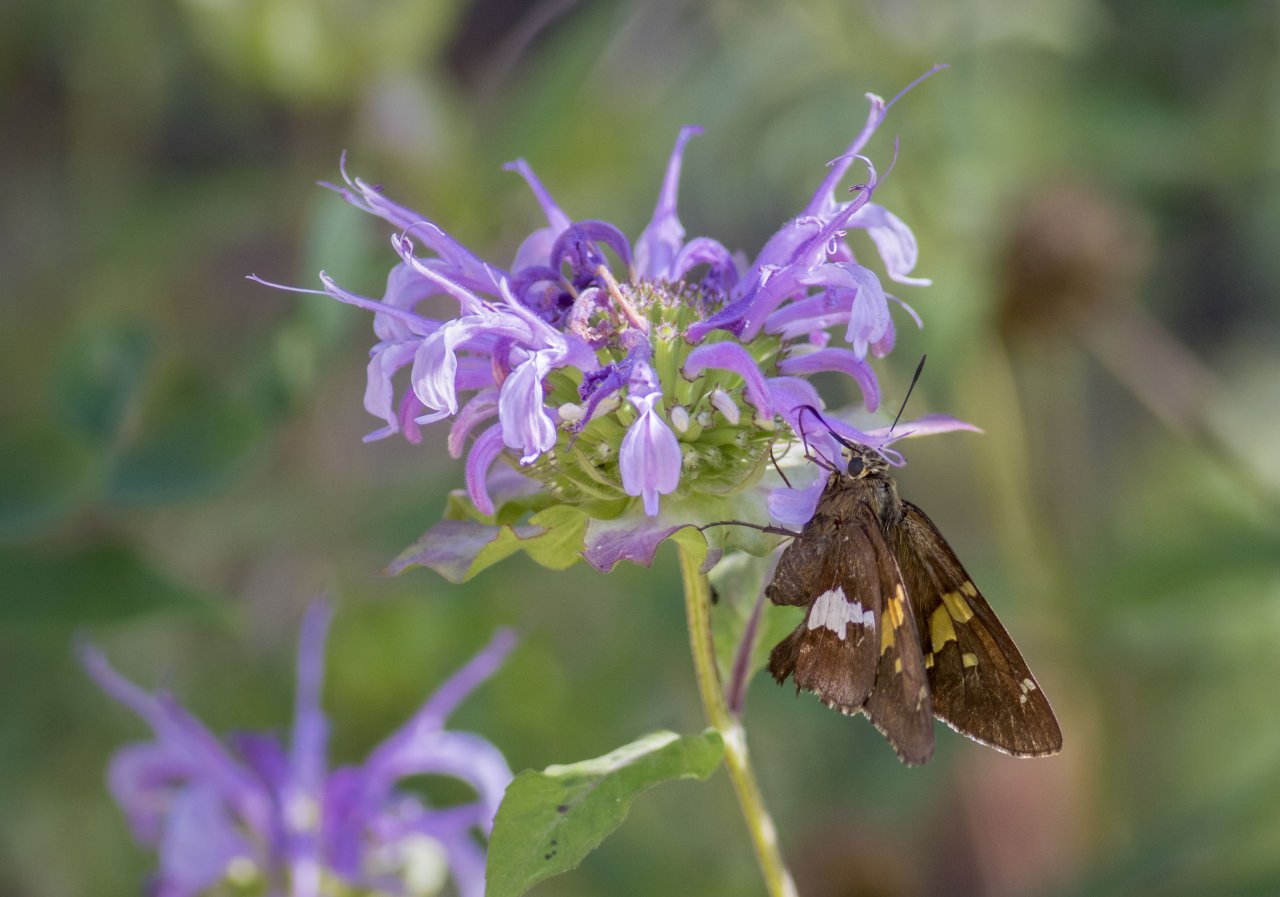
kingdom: Animalia
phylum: Arthropoda
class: Insecta
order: Lepidoptera
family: Hesperiidae
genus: Epargyreus
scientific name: Epargyreus clarus
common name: Silver-spotted Skipper
